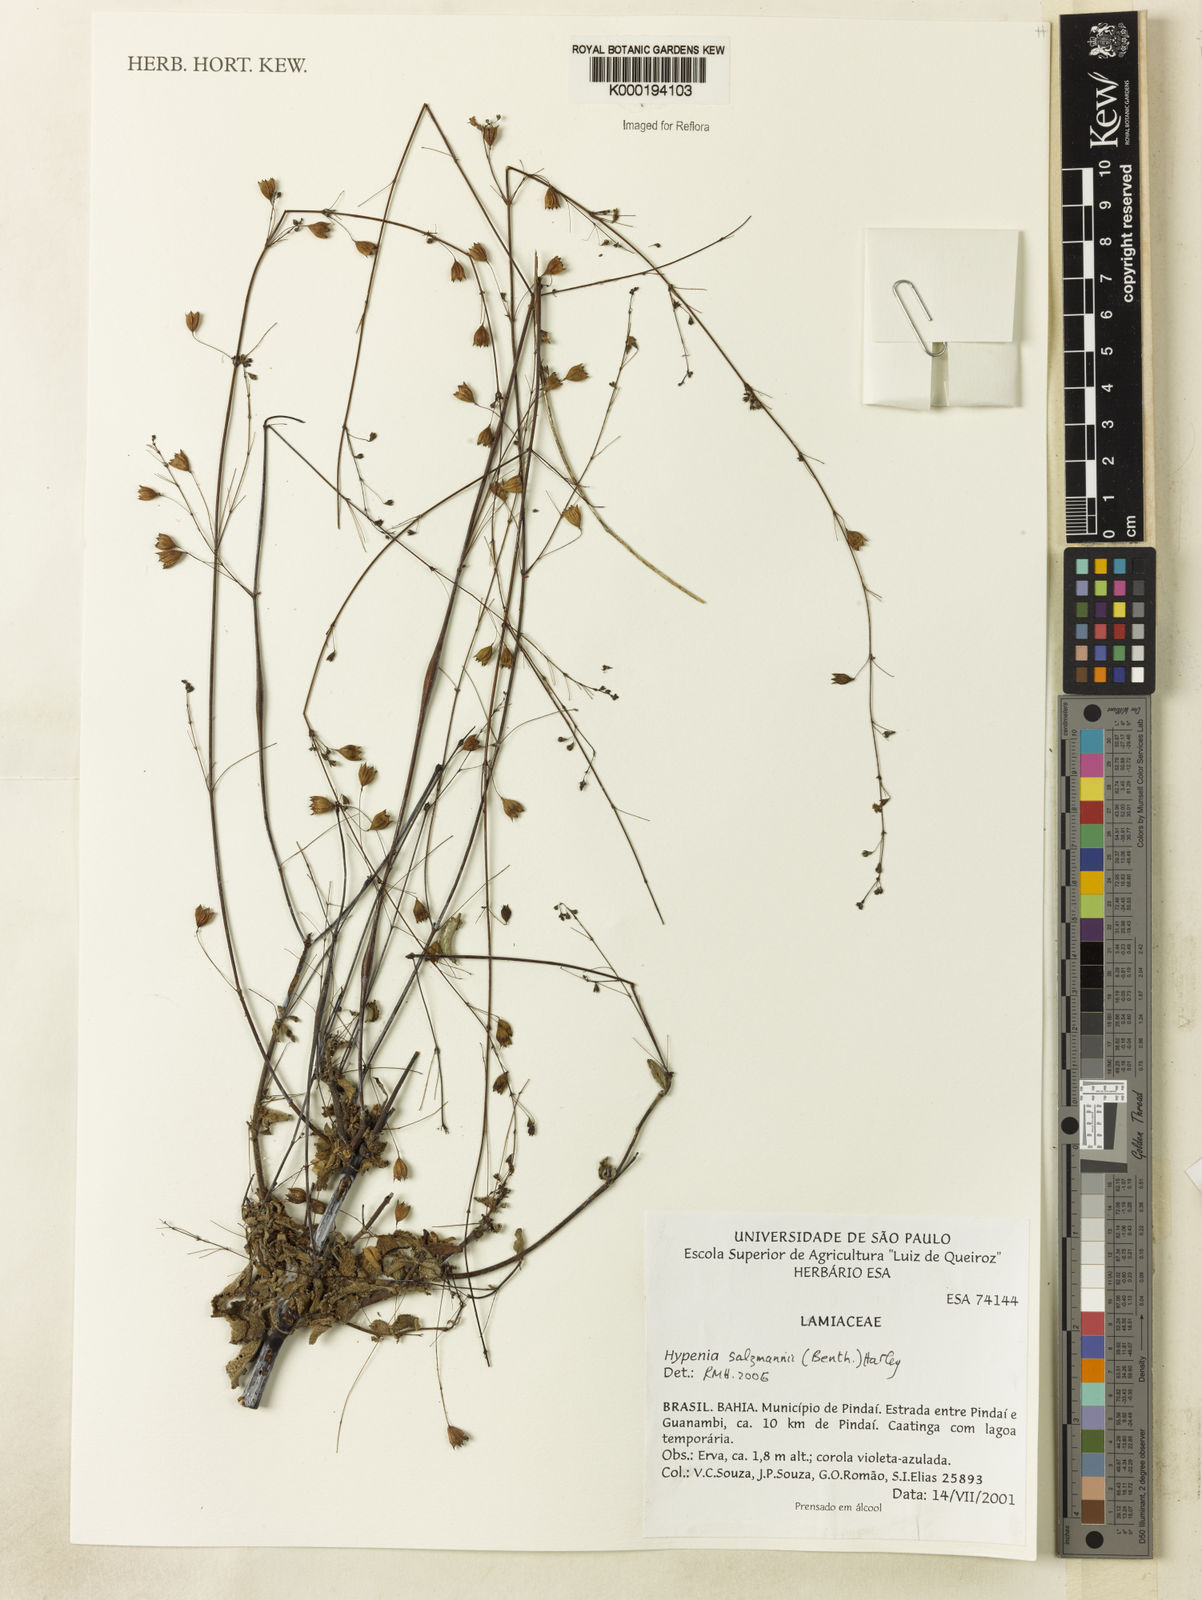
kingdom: Plantae
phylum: Tracheophyta
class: Magnoliopsida
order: Lamiales
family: Lamiaceae
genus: Hypenia
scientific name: Hypenia salzmannii
